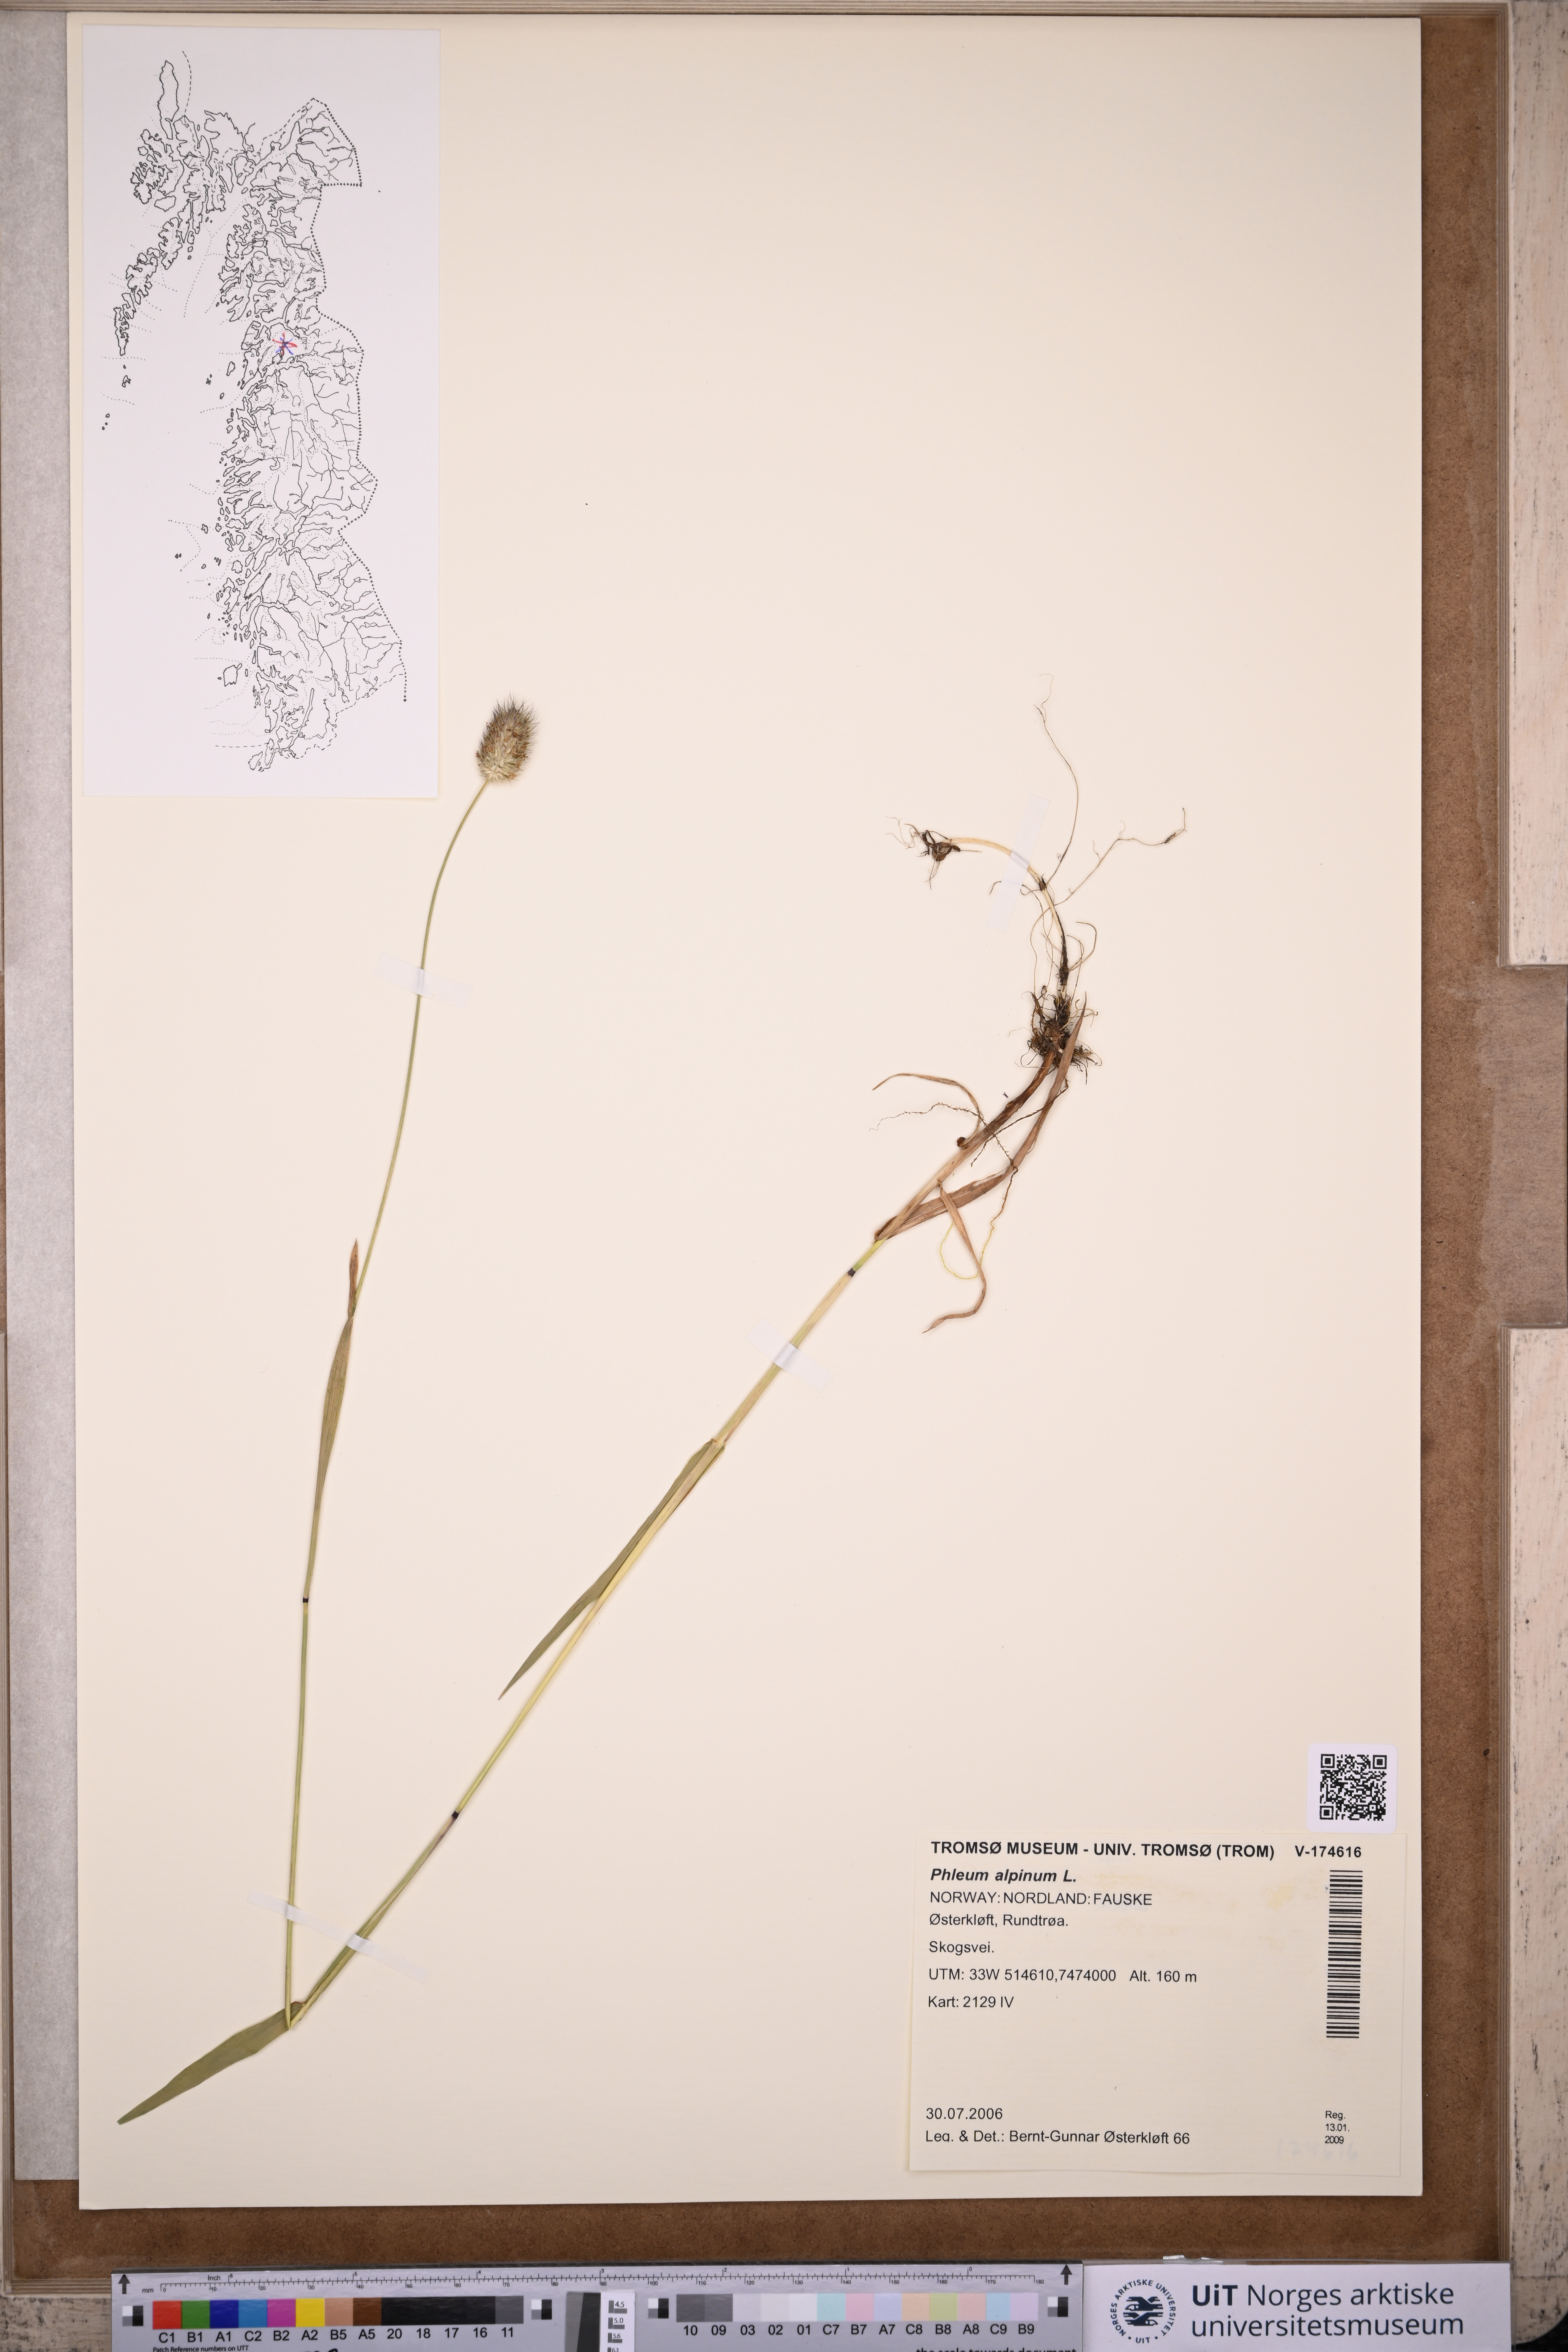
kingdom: Plantae
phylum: Tracheophyta
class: Liliopsida
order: Poales
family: Poaceae
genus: Phleum
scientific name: Phleum alpinum
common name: Alpine cat's-tail
